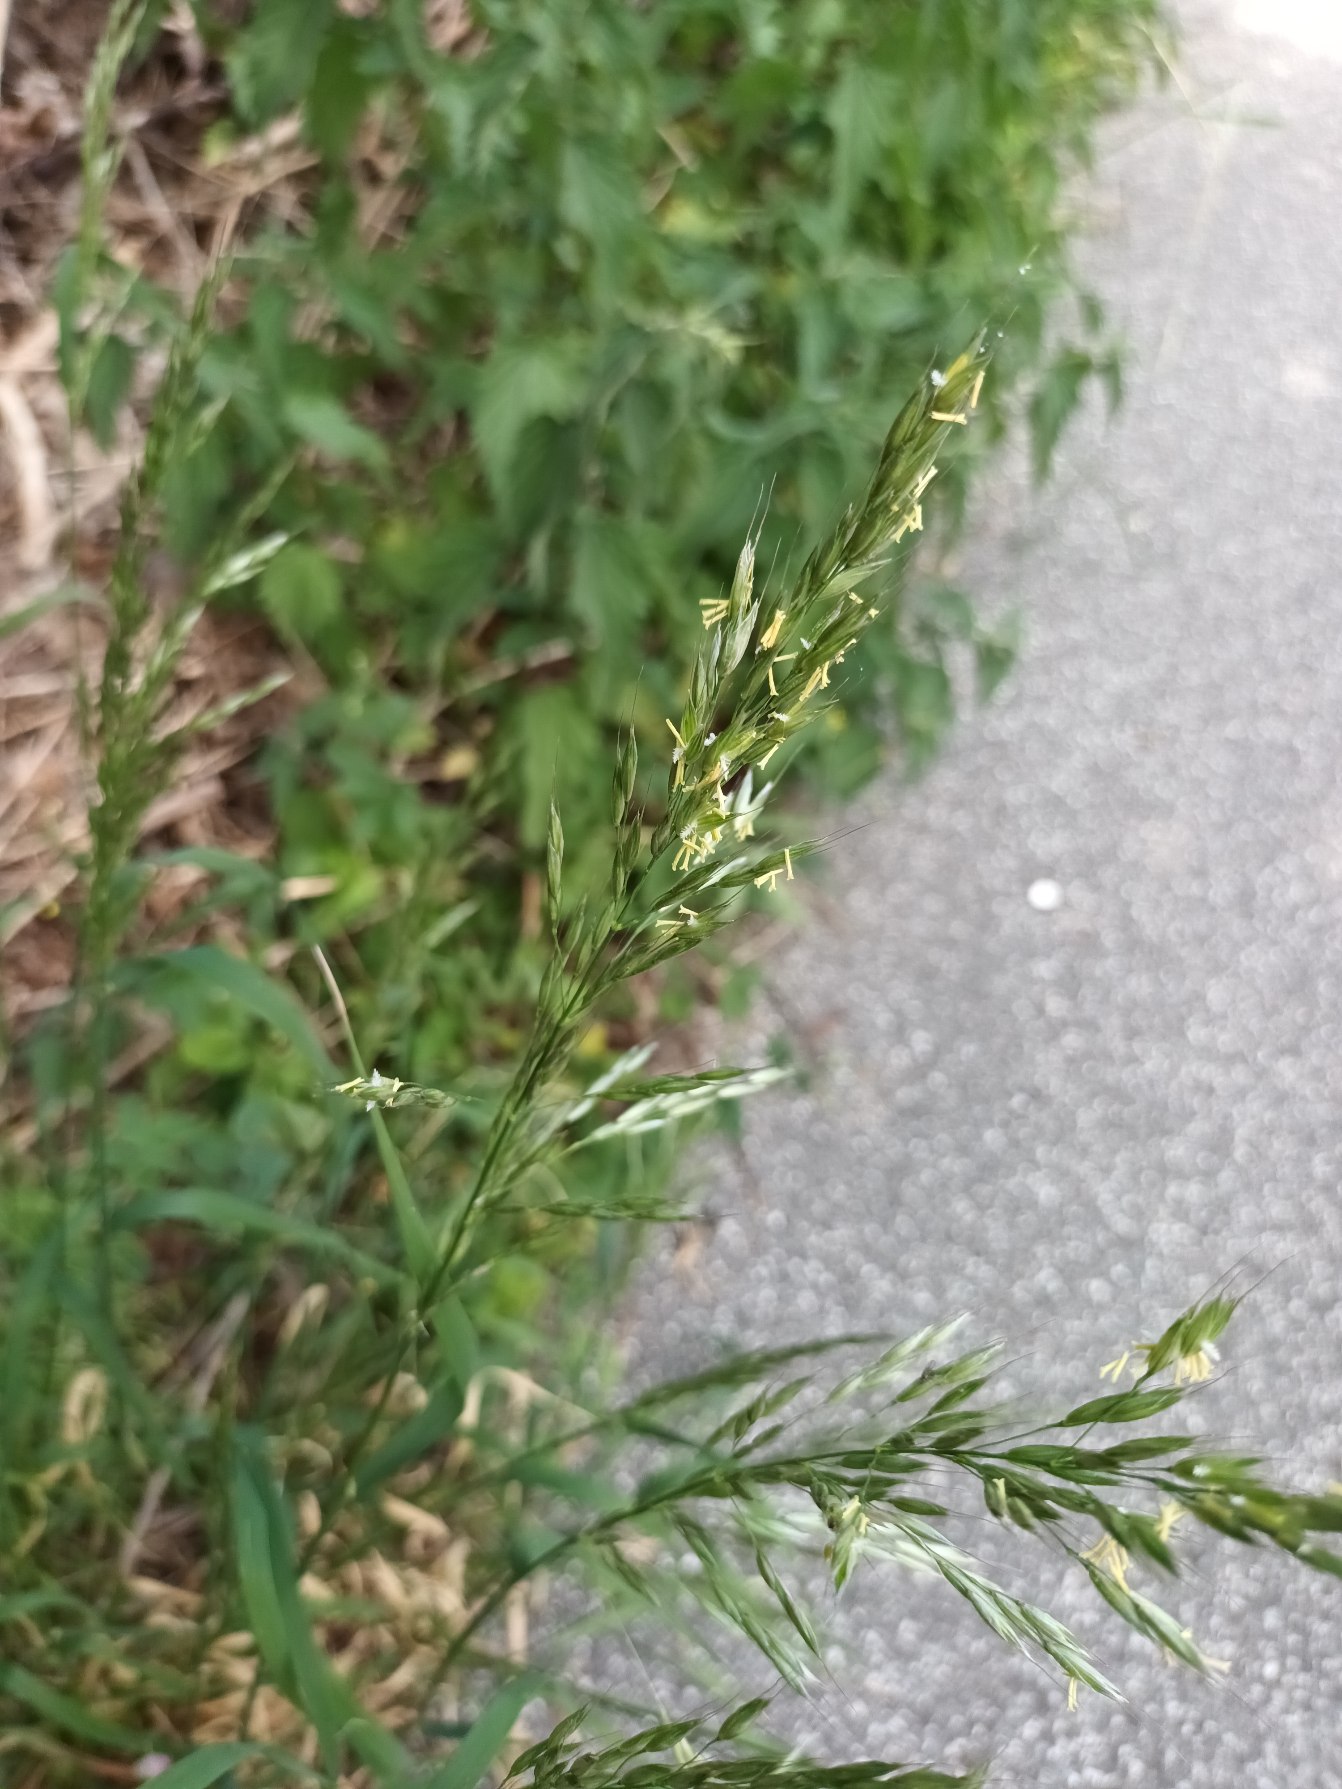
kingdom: Plantae
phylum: Tracheophyta
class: Liliopsida
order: Poales
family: Poaceae
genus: Arrhenatherum
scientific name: Arrhenatherum elatius
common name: Draphavre
